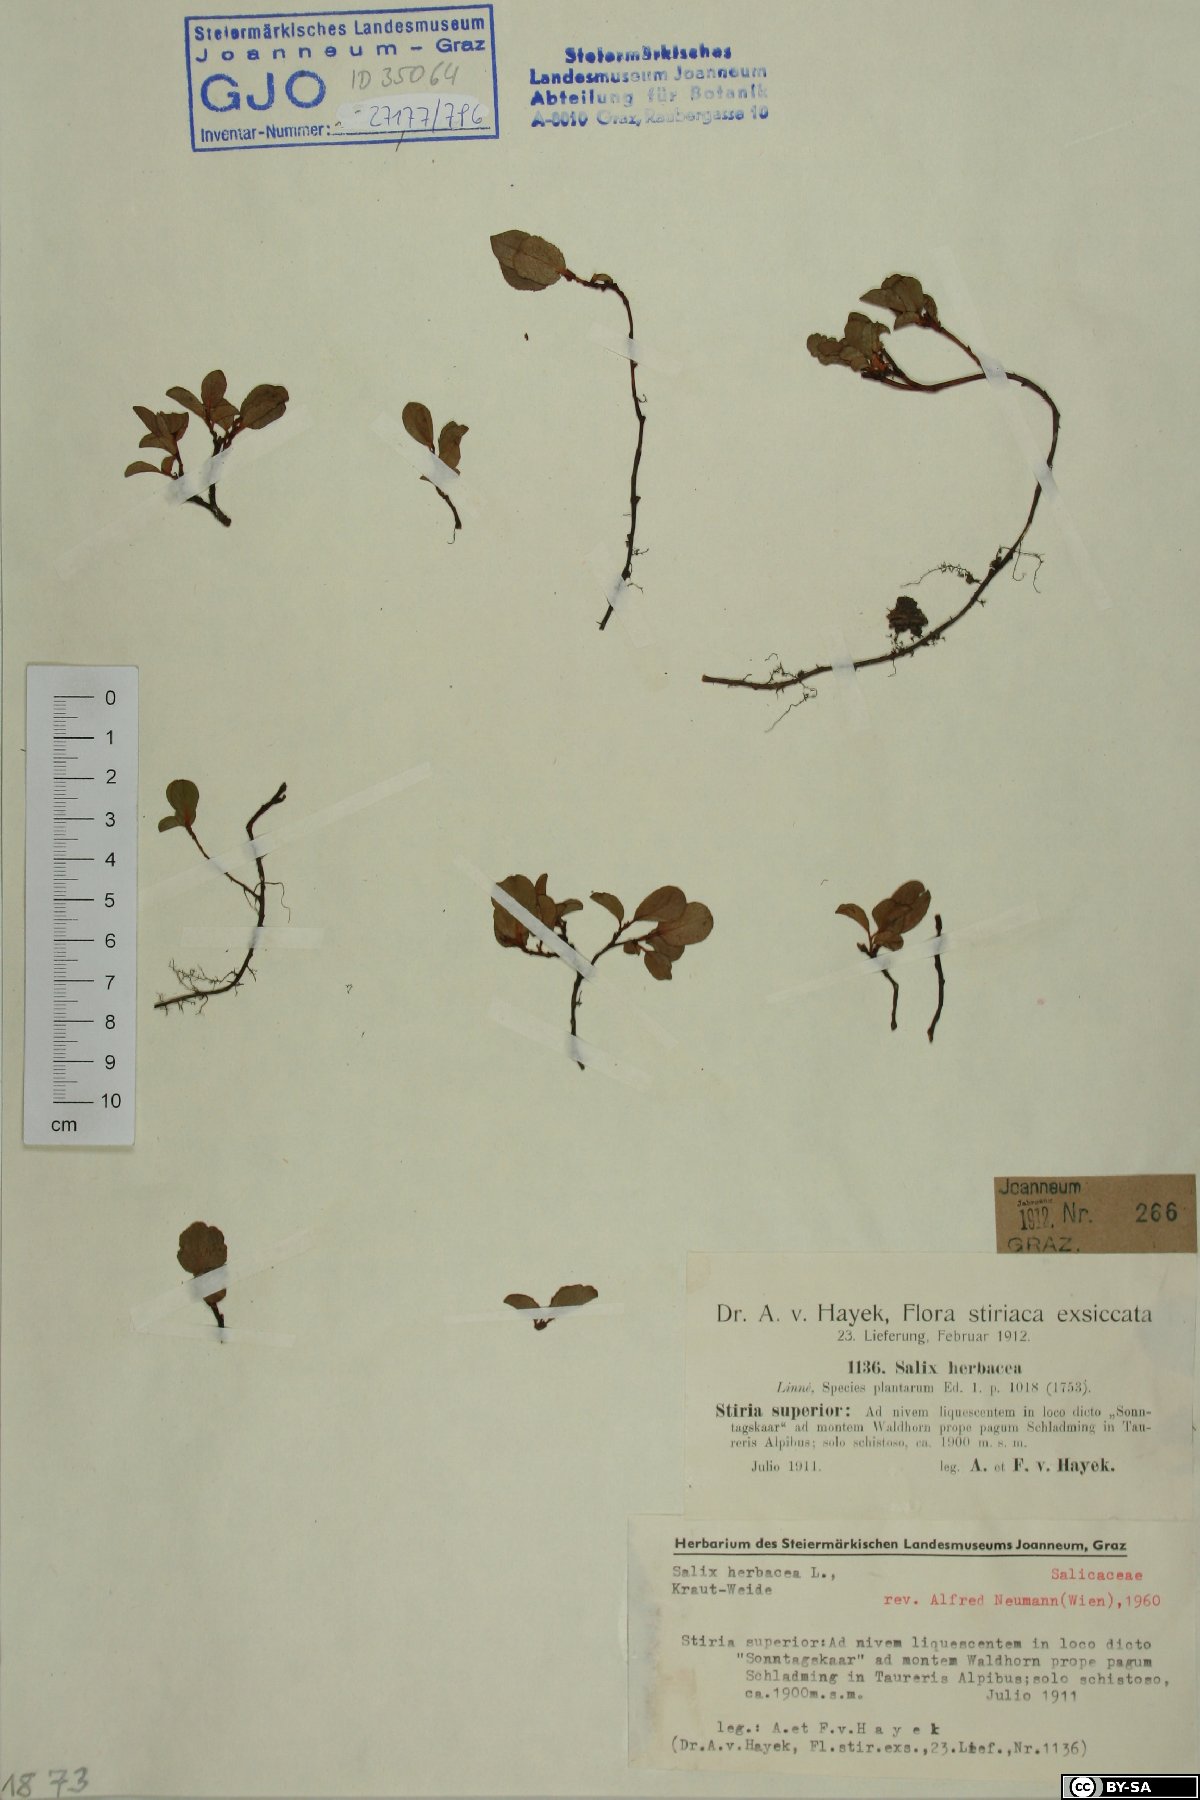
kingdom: Plantae
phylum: Tracheophyta
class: Magnoliopsida
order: Malpighiales
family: Salicaceae
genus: Salix
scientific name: Salix herbacea
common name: Dwarf willow
